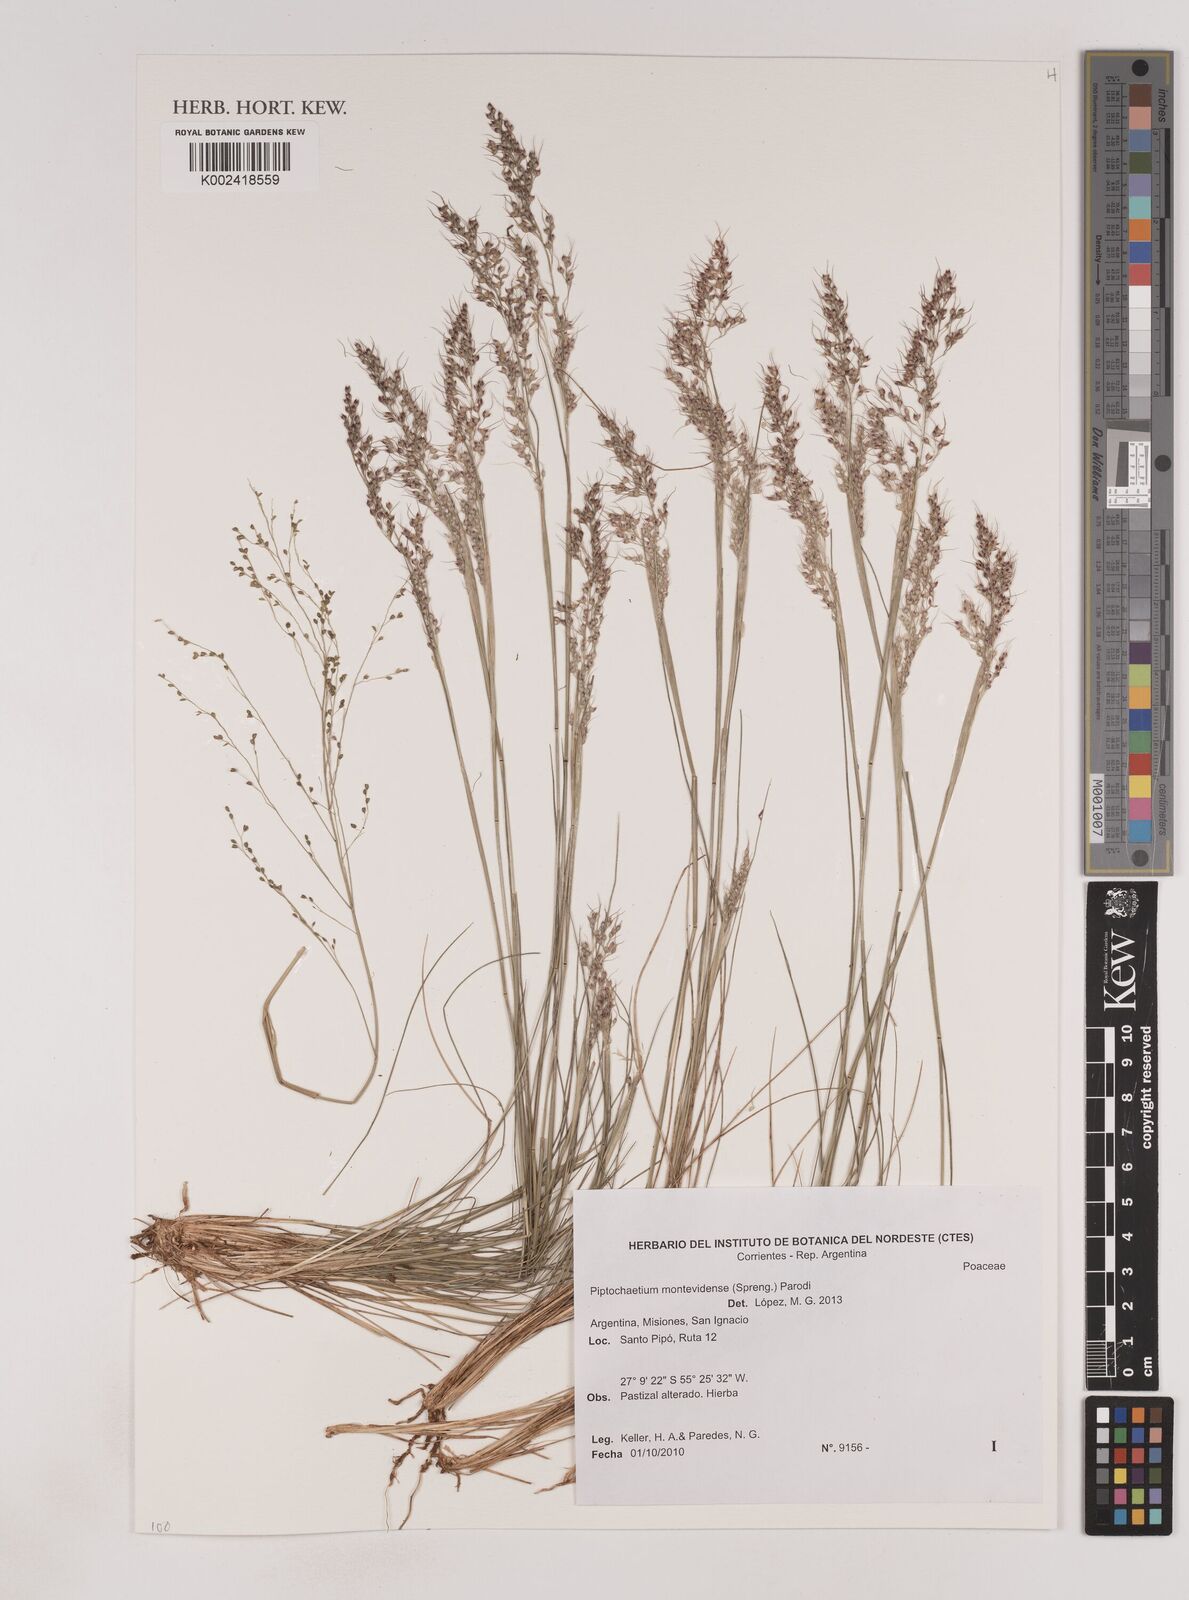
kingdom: Plantae
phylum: Tracheophyta
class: Liliopsida
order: Poales
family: Poaceae
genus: Piptochaetium
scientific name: Piptochaetium montevidense
